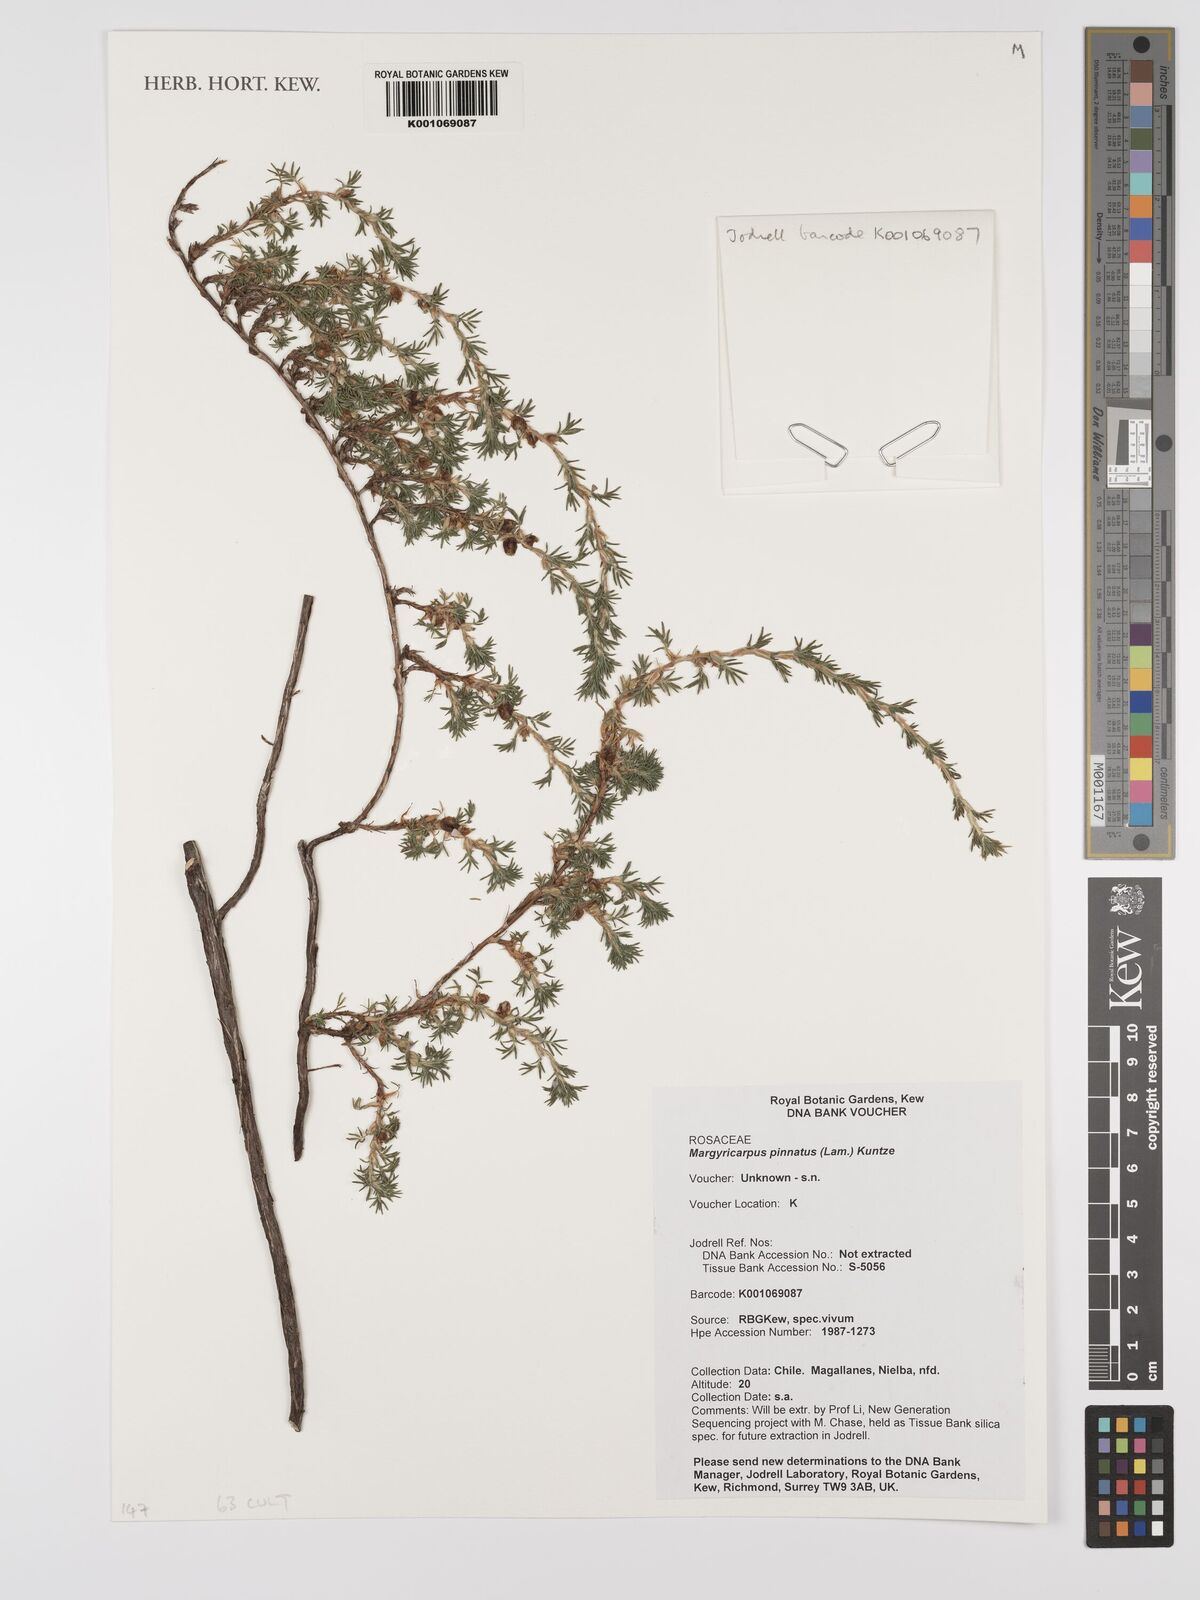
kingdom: Plantae
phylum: Tracheophyta
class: Magnoliopsida
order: Rosales
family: Rosaceae
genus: Margyricarpus
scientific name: Margyricarpus pinnatus
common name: Pearlfruit
